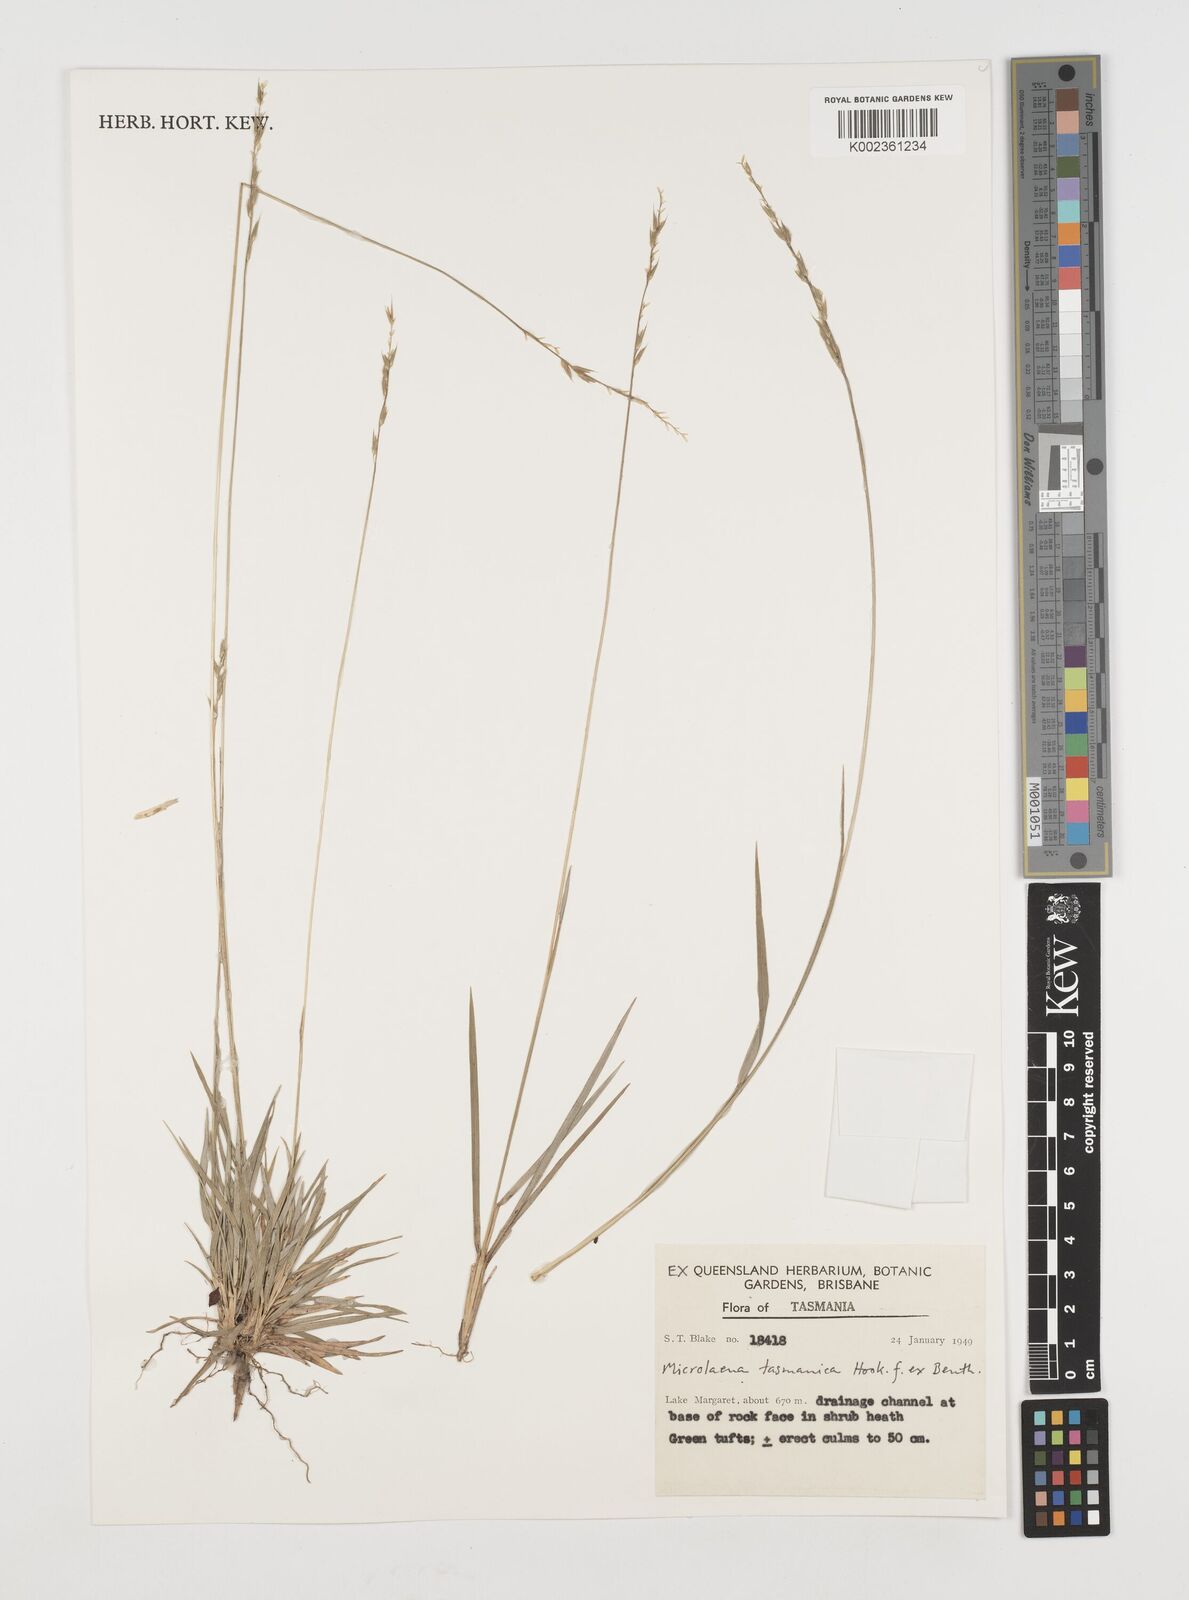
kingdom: Plantae
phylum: Tracheophyta
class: Liliopsida
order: Poales
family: Poaceae
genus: Microlaena
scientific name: Microlaena tasmanica
